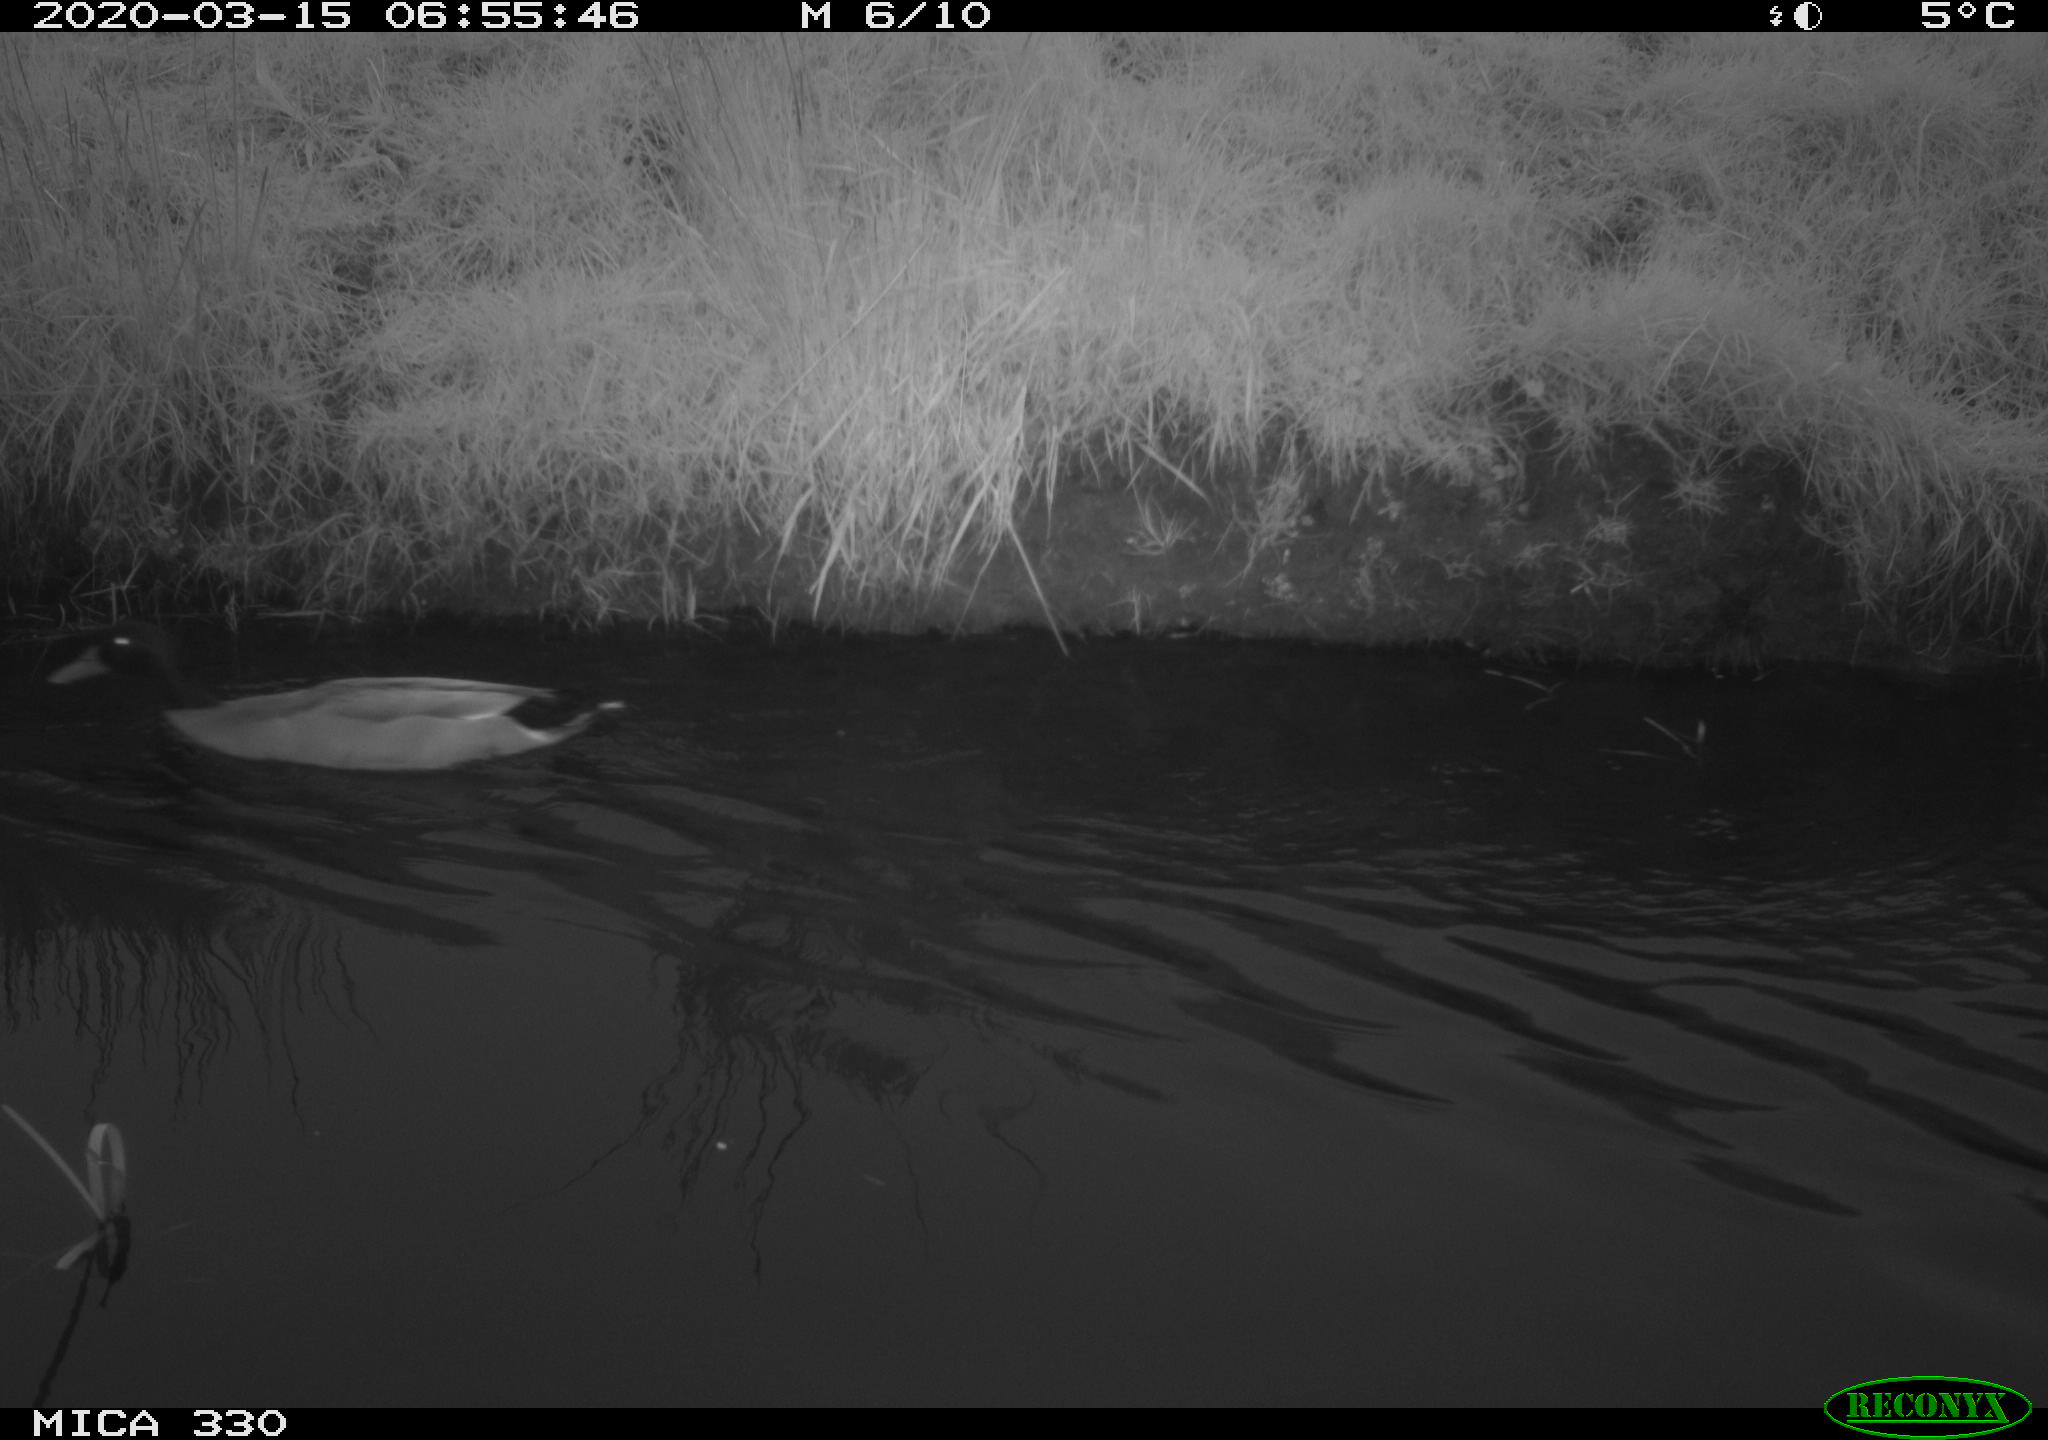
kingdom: Animalia
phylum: Chordata
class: Aves
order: Anseriformes
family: Anatidae
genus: Anas
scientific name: Anas platyrhynchos
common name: Mallard
